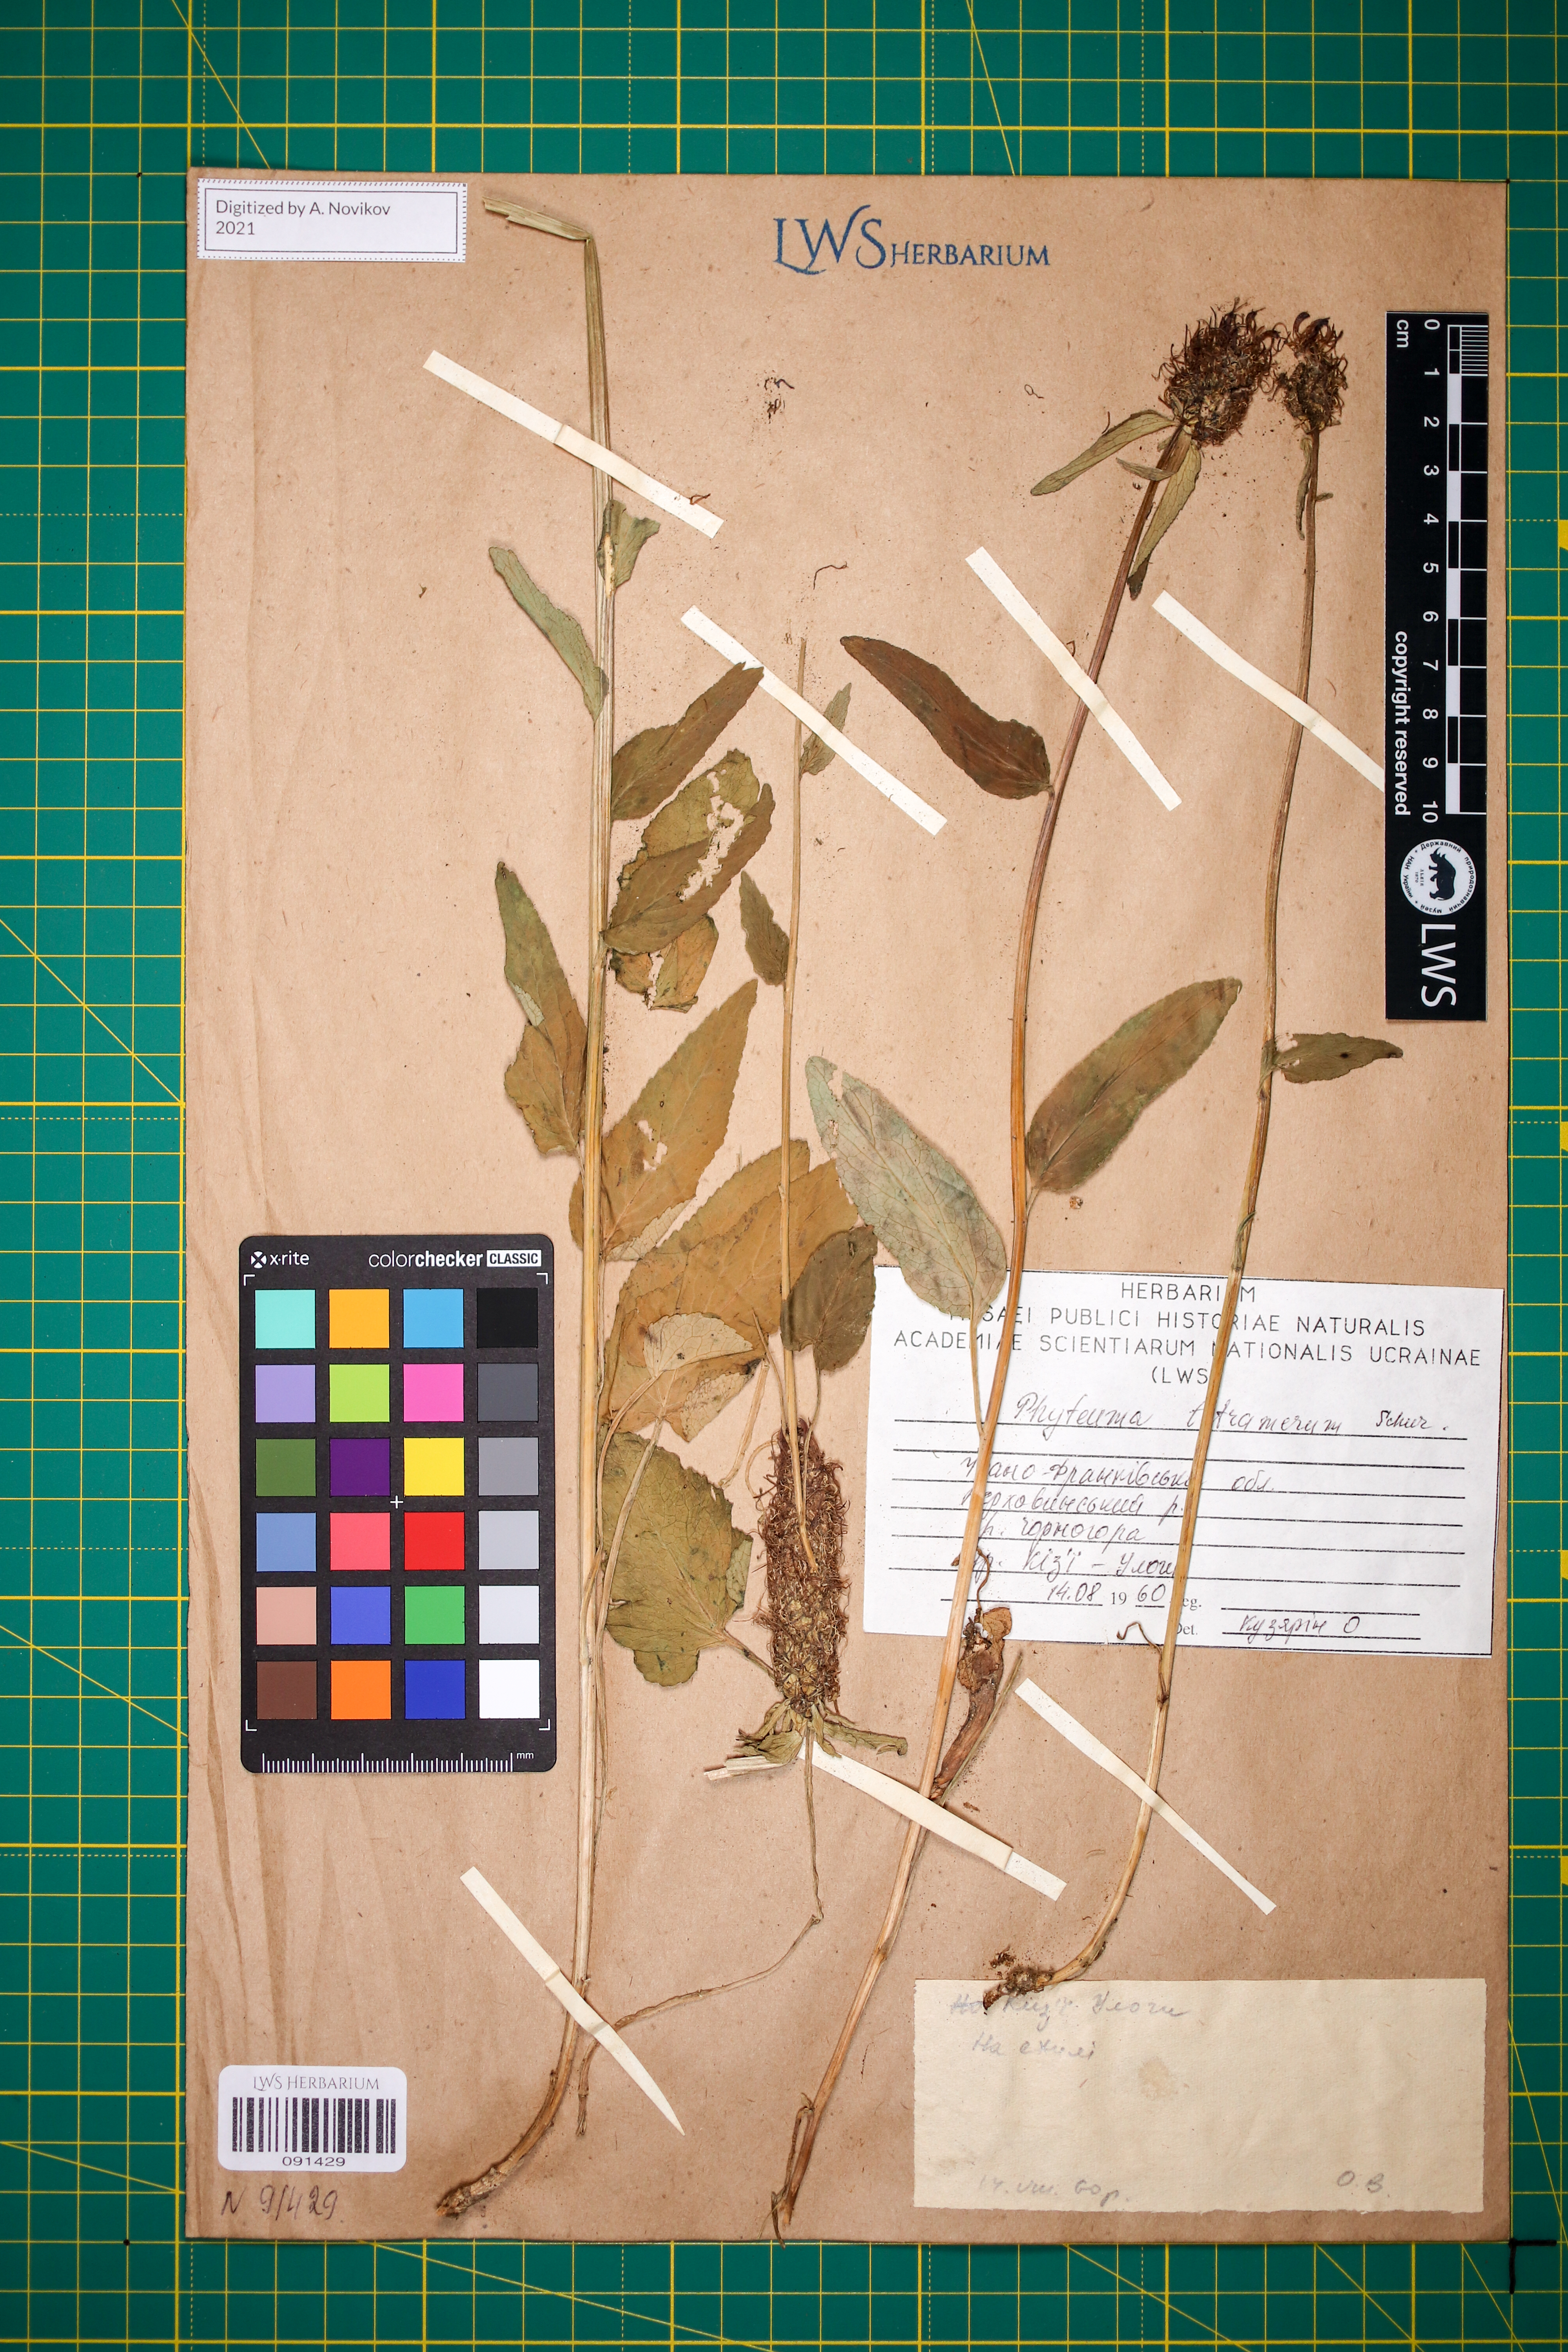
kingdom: Plantae
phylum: Tracheophyta
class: Magnoliopsida
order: Asterales
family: Campanulaceae
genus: Phyteuma
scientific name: Phyteuma tetramerum
